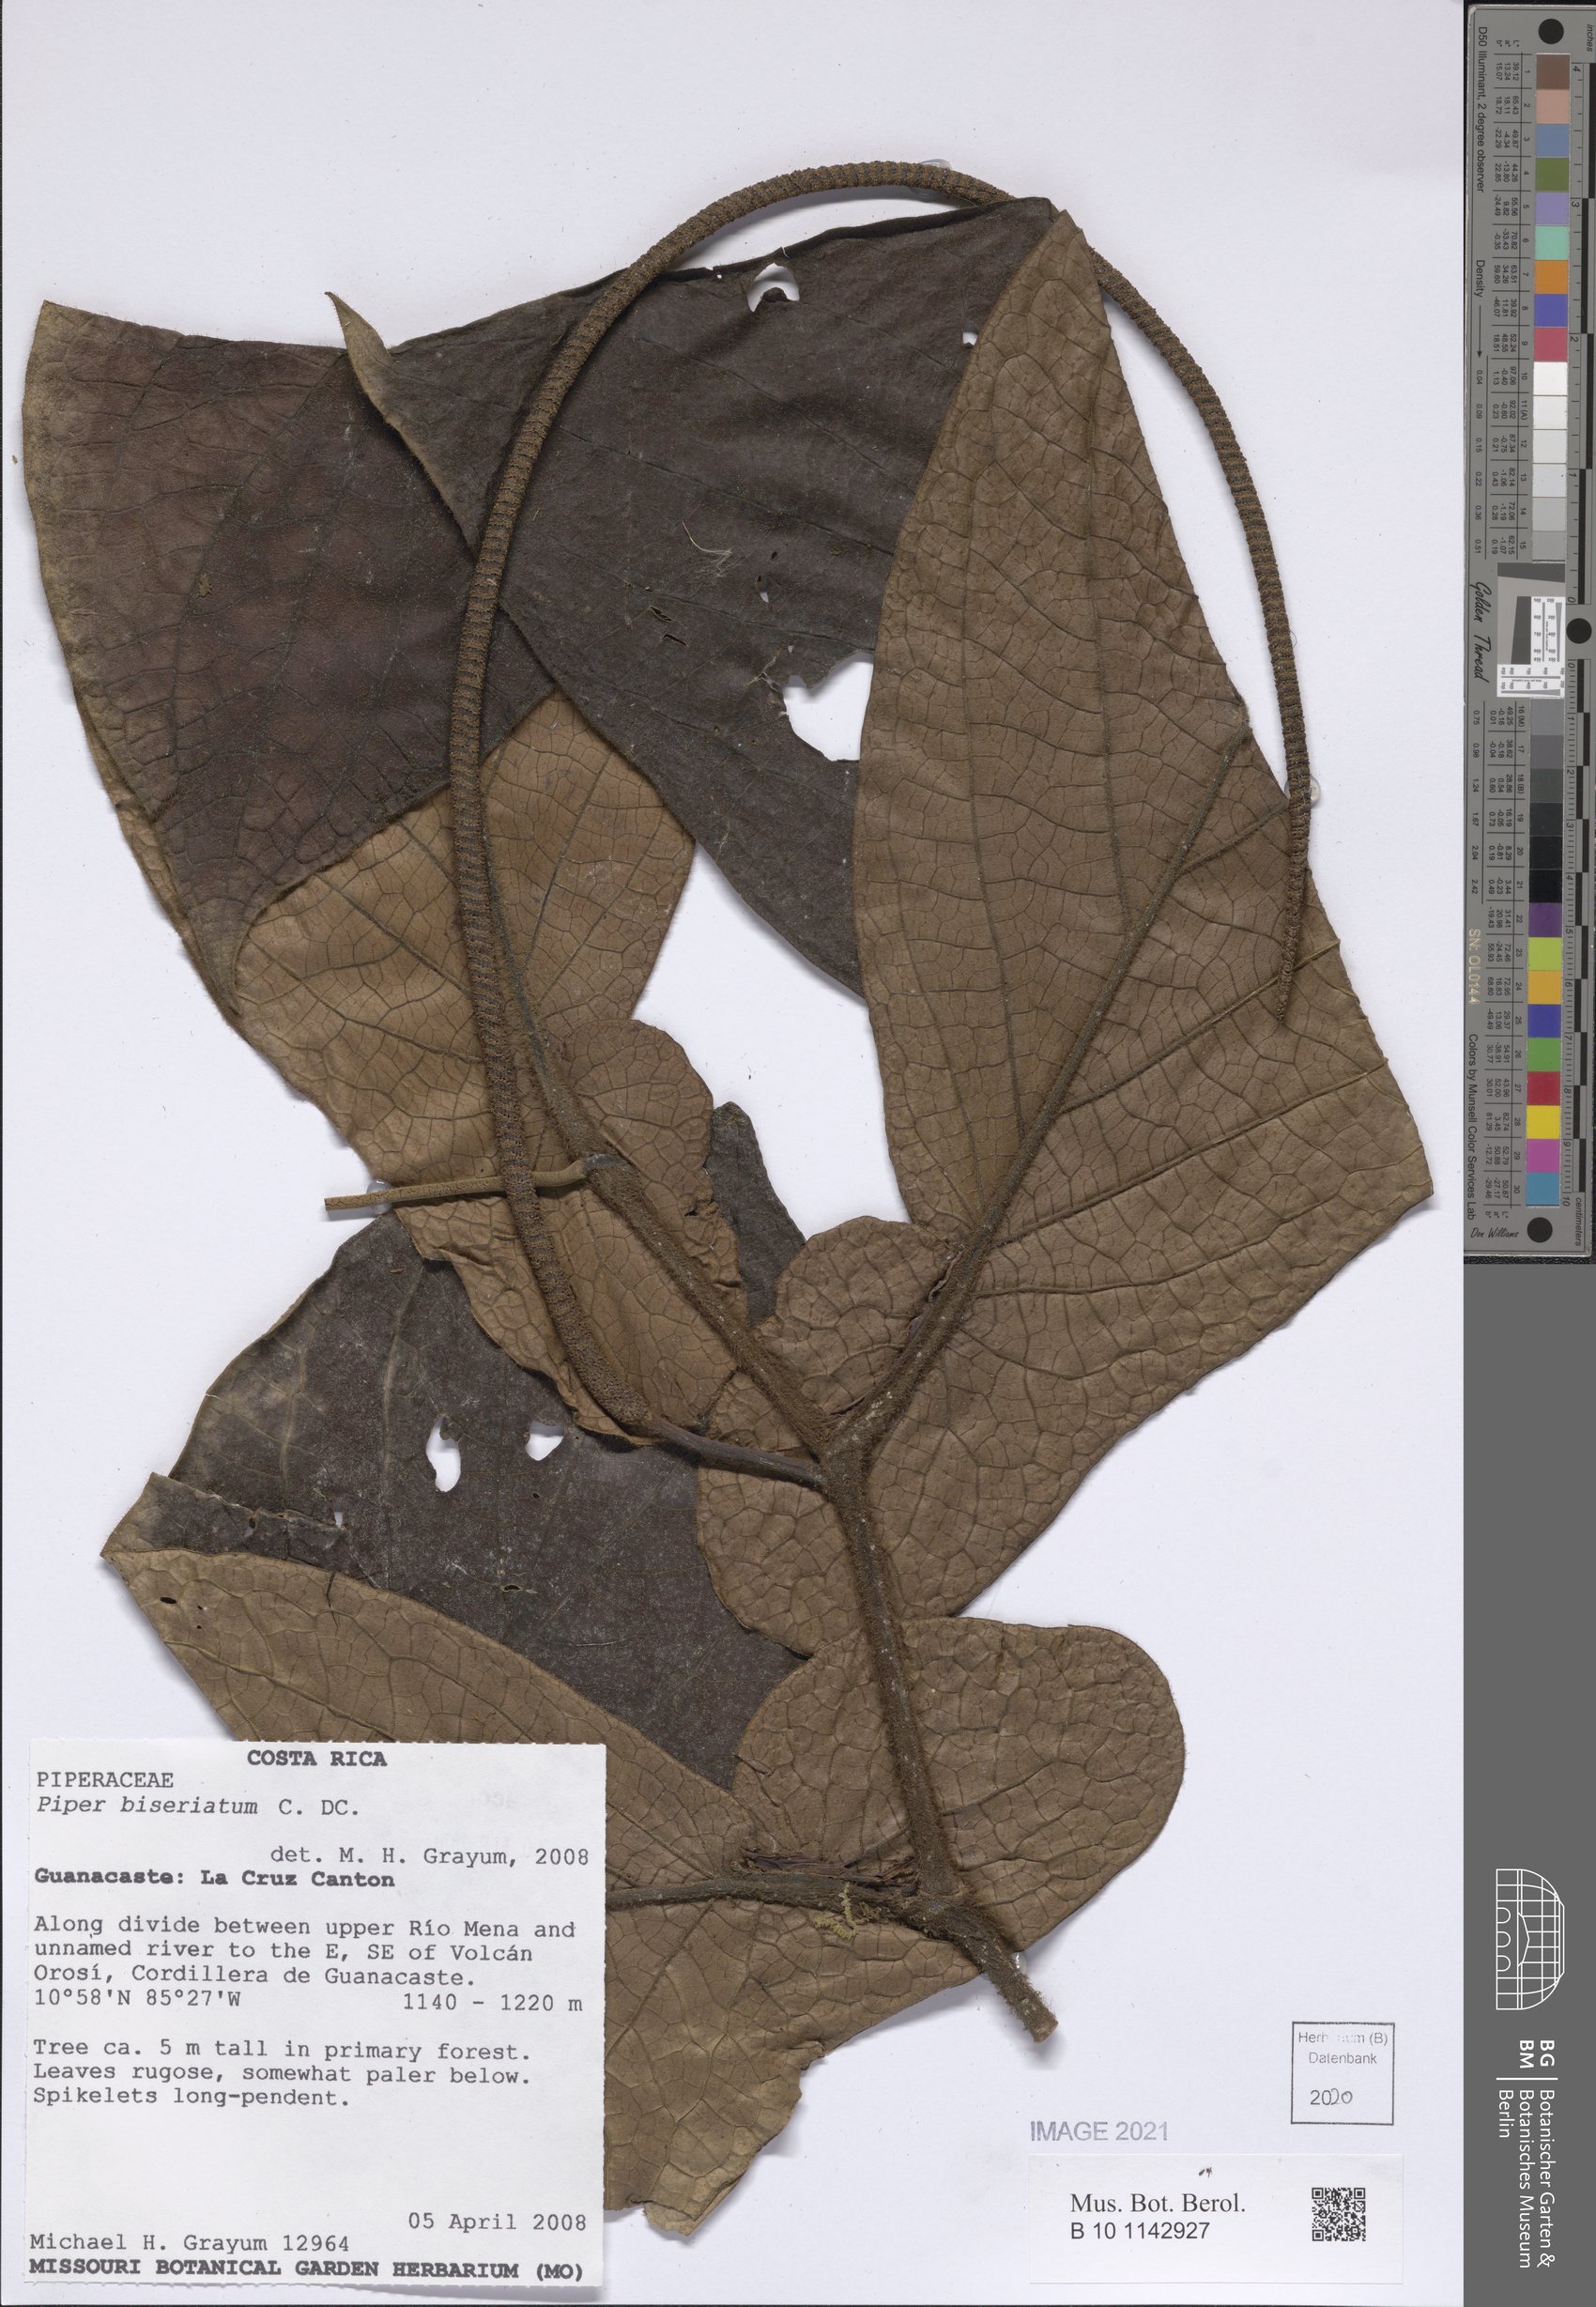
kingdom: Plantae
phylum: Tracheophyta
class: Magnoliopsida
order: Piperales
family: Piperaceae
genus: Piper
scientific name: Piper biseriatum
